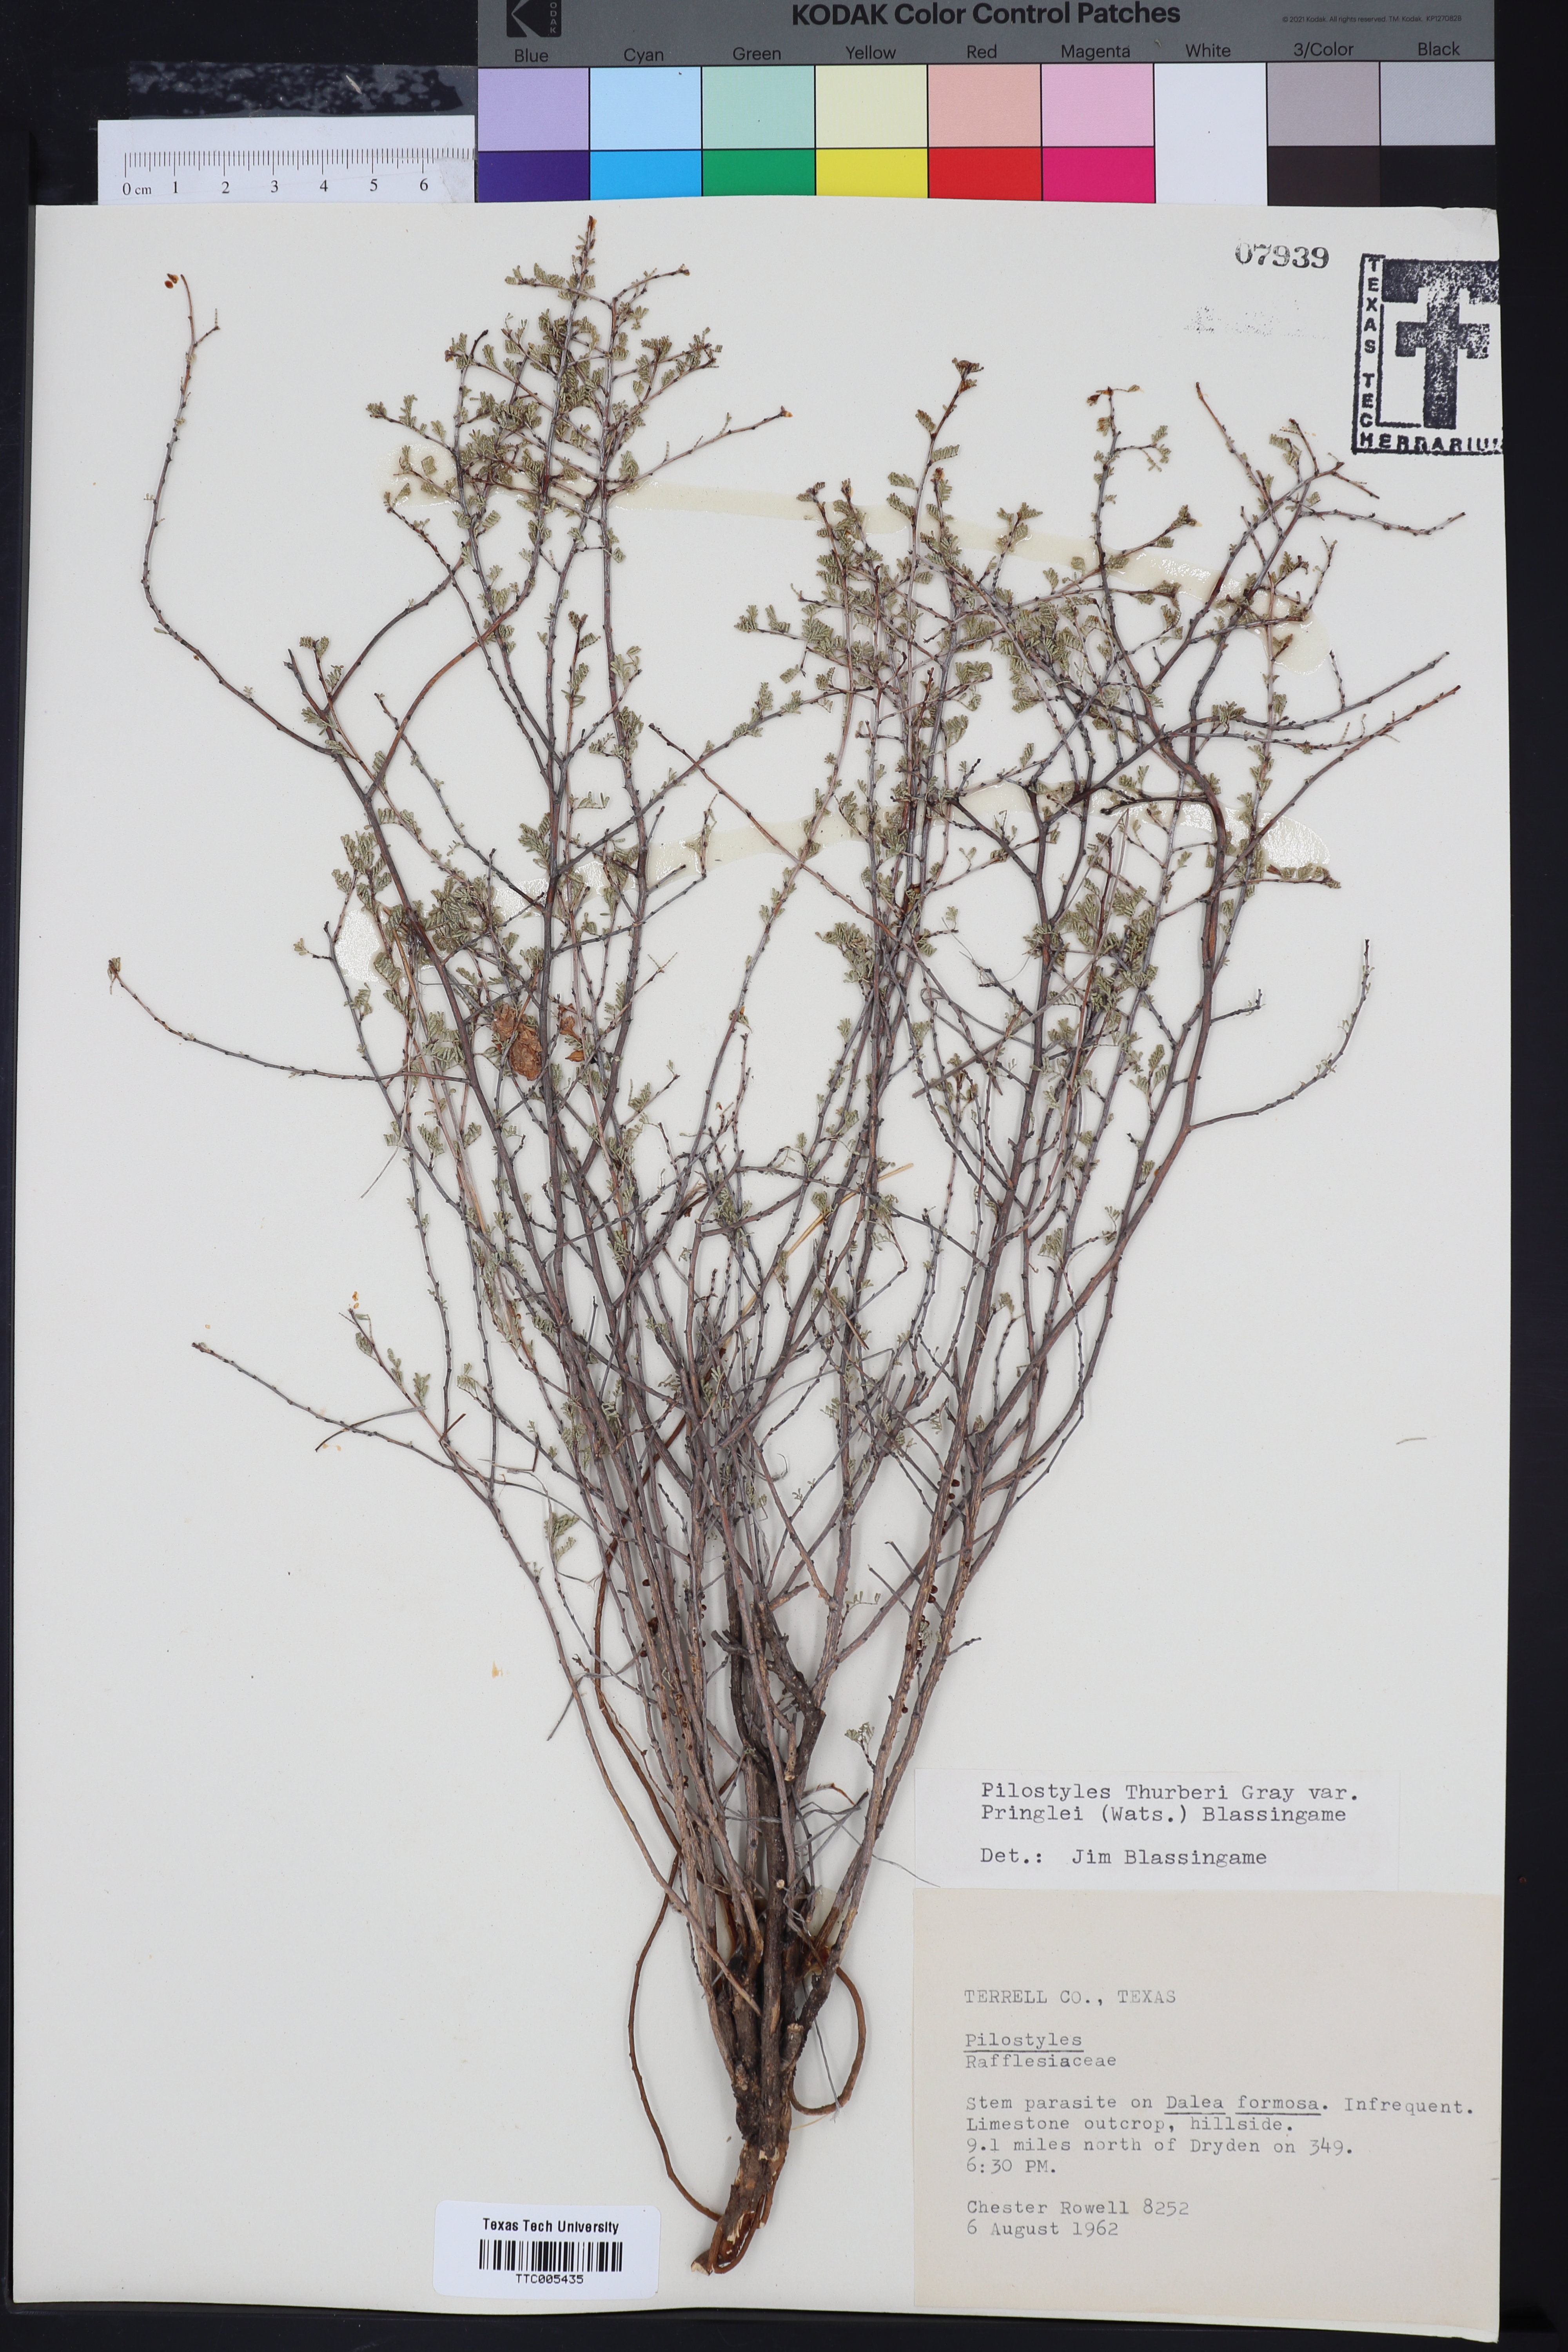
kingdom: Plantae
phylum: Tracheophyta
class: Magnoliopsida
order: Cucurbitales
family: Apodanthaceae
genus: Pilostyles
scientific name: Pilostyles thurberi
